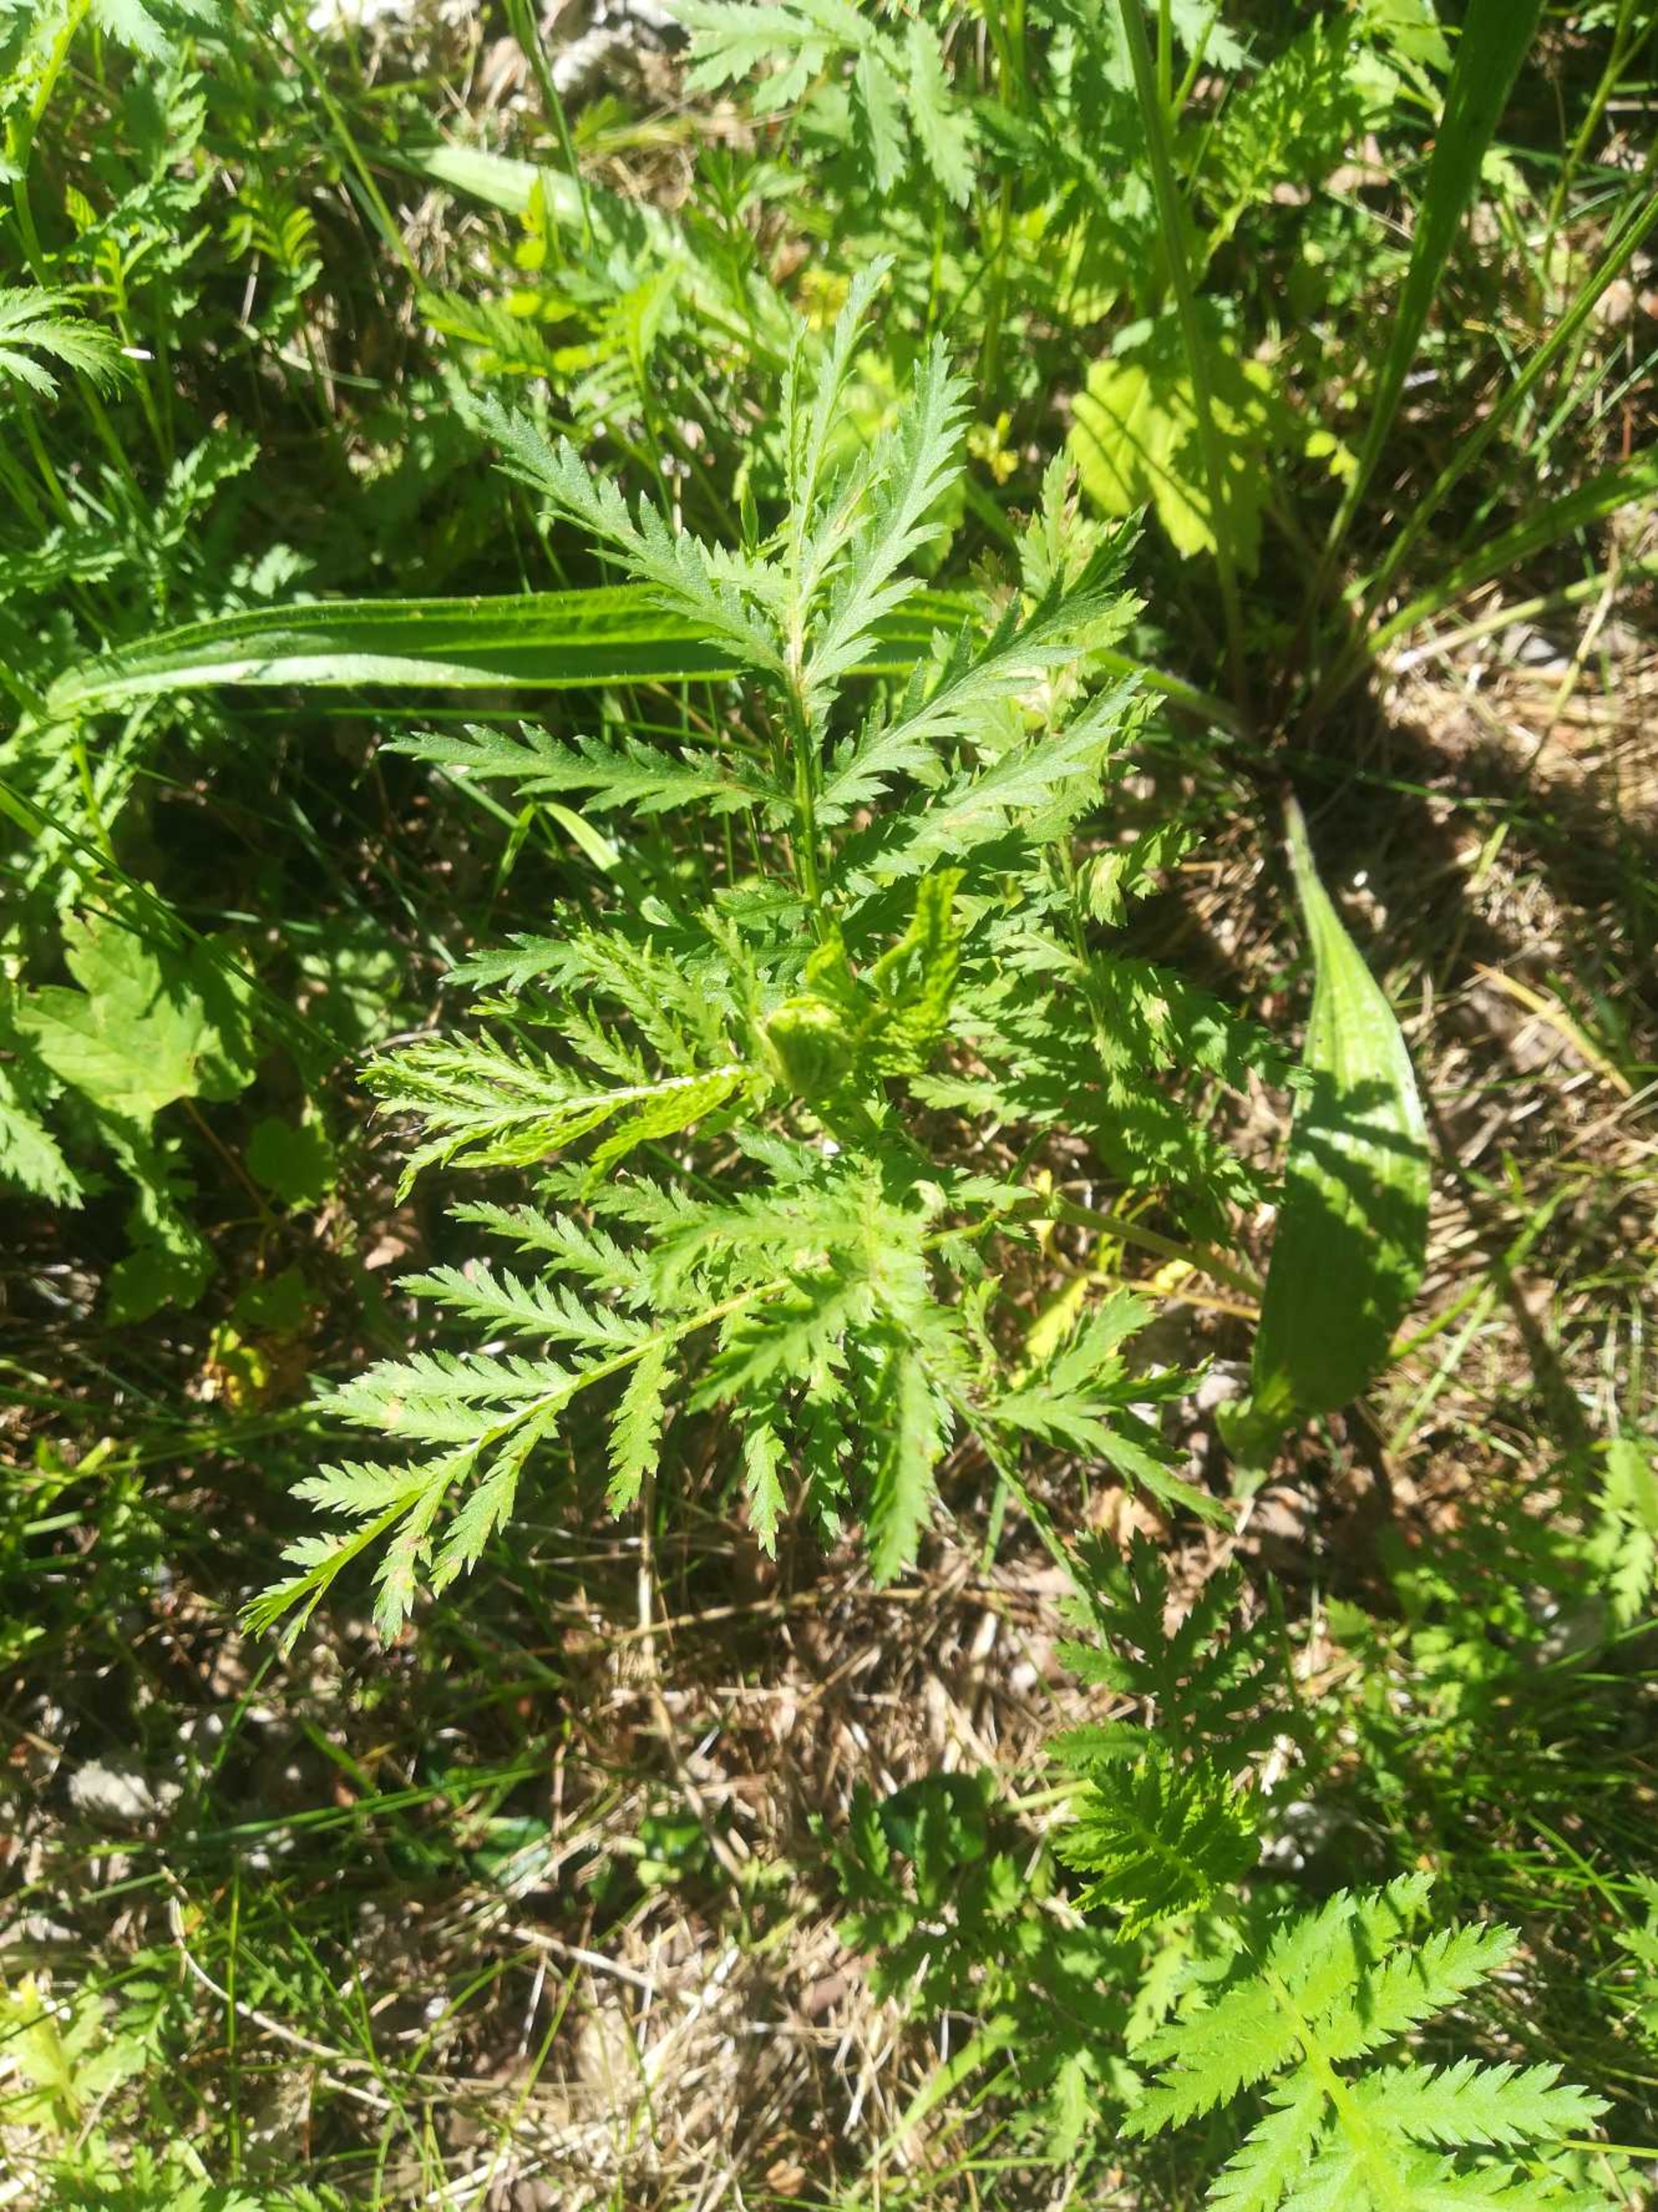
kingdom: Plantae
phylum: Tracheophyta
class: Magnoliopsida
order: Asterales
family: Asteraceae
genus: Tanacetum
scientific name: Tanacetum vulgare
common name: Rejnfan
